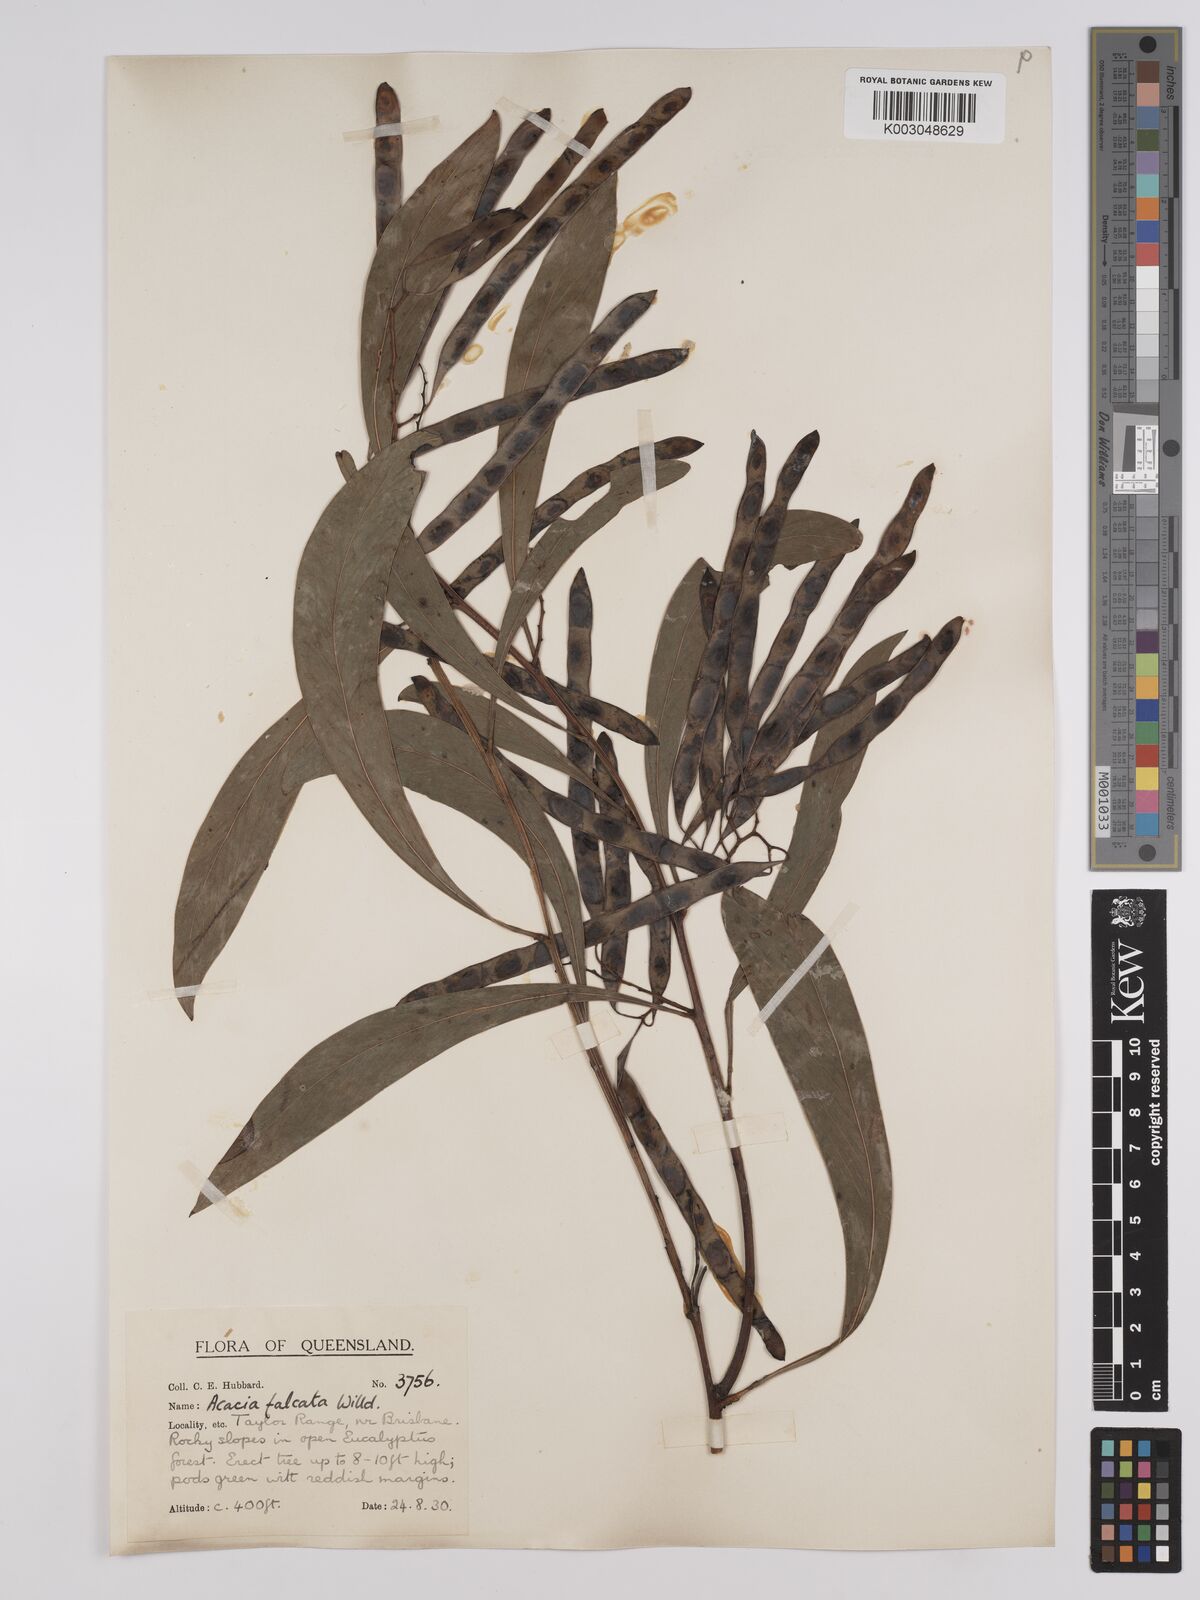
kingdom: Plantae
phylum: Tracheophyta
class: Magnoliopsida
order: Fabales
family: Fabaceae
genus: Acacia
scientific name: Acacia falcata
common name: Burra acacia
